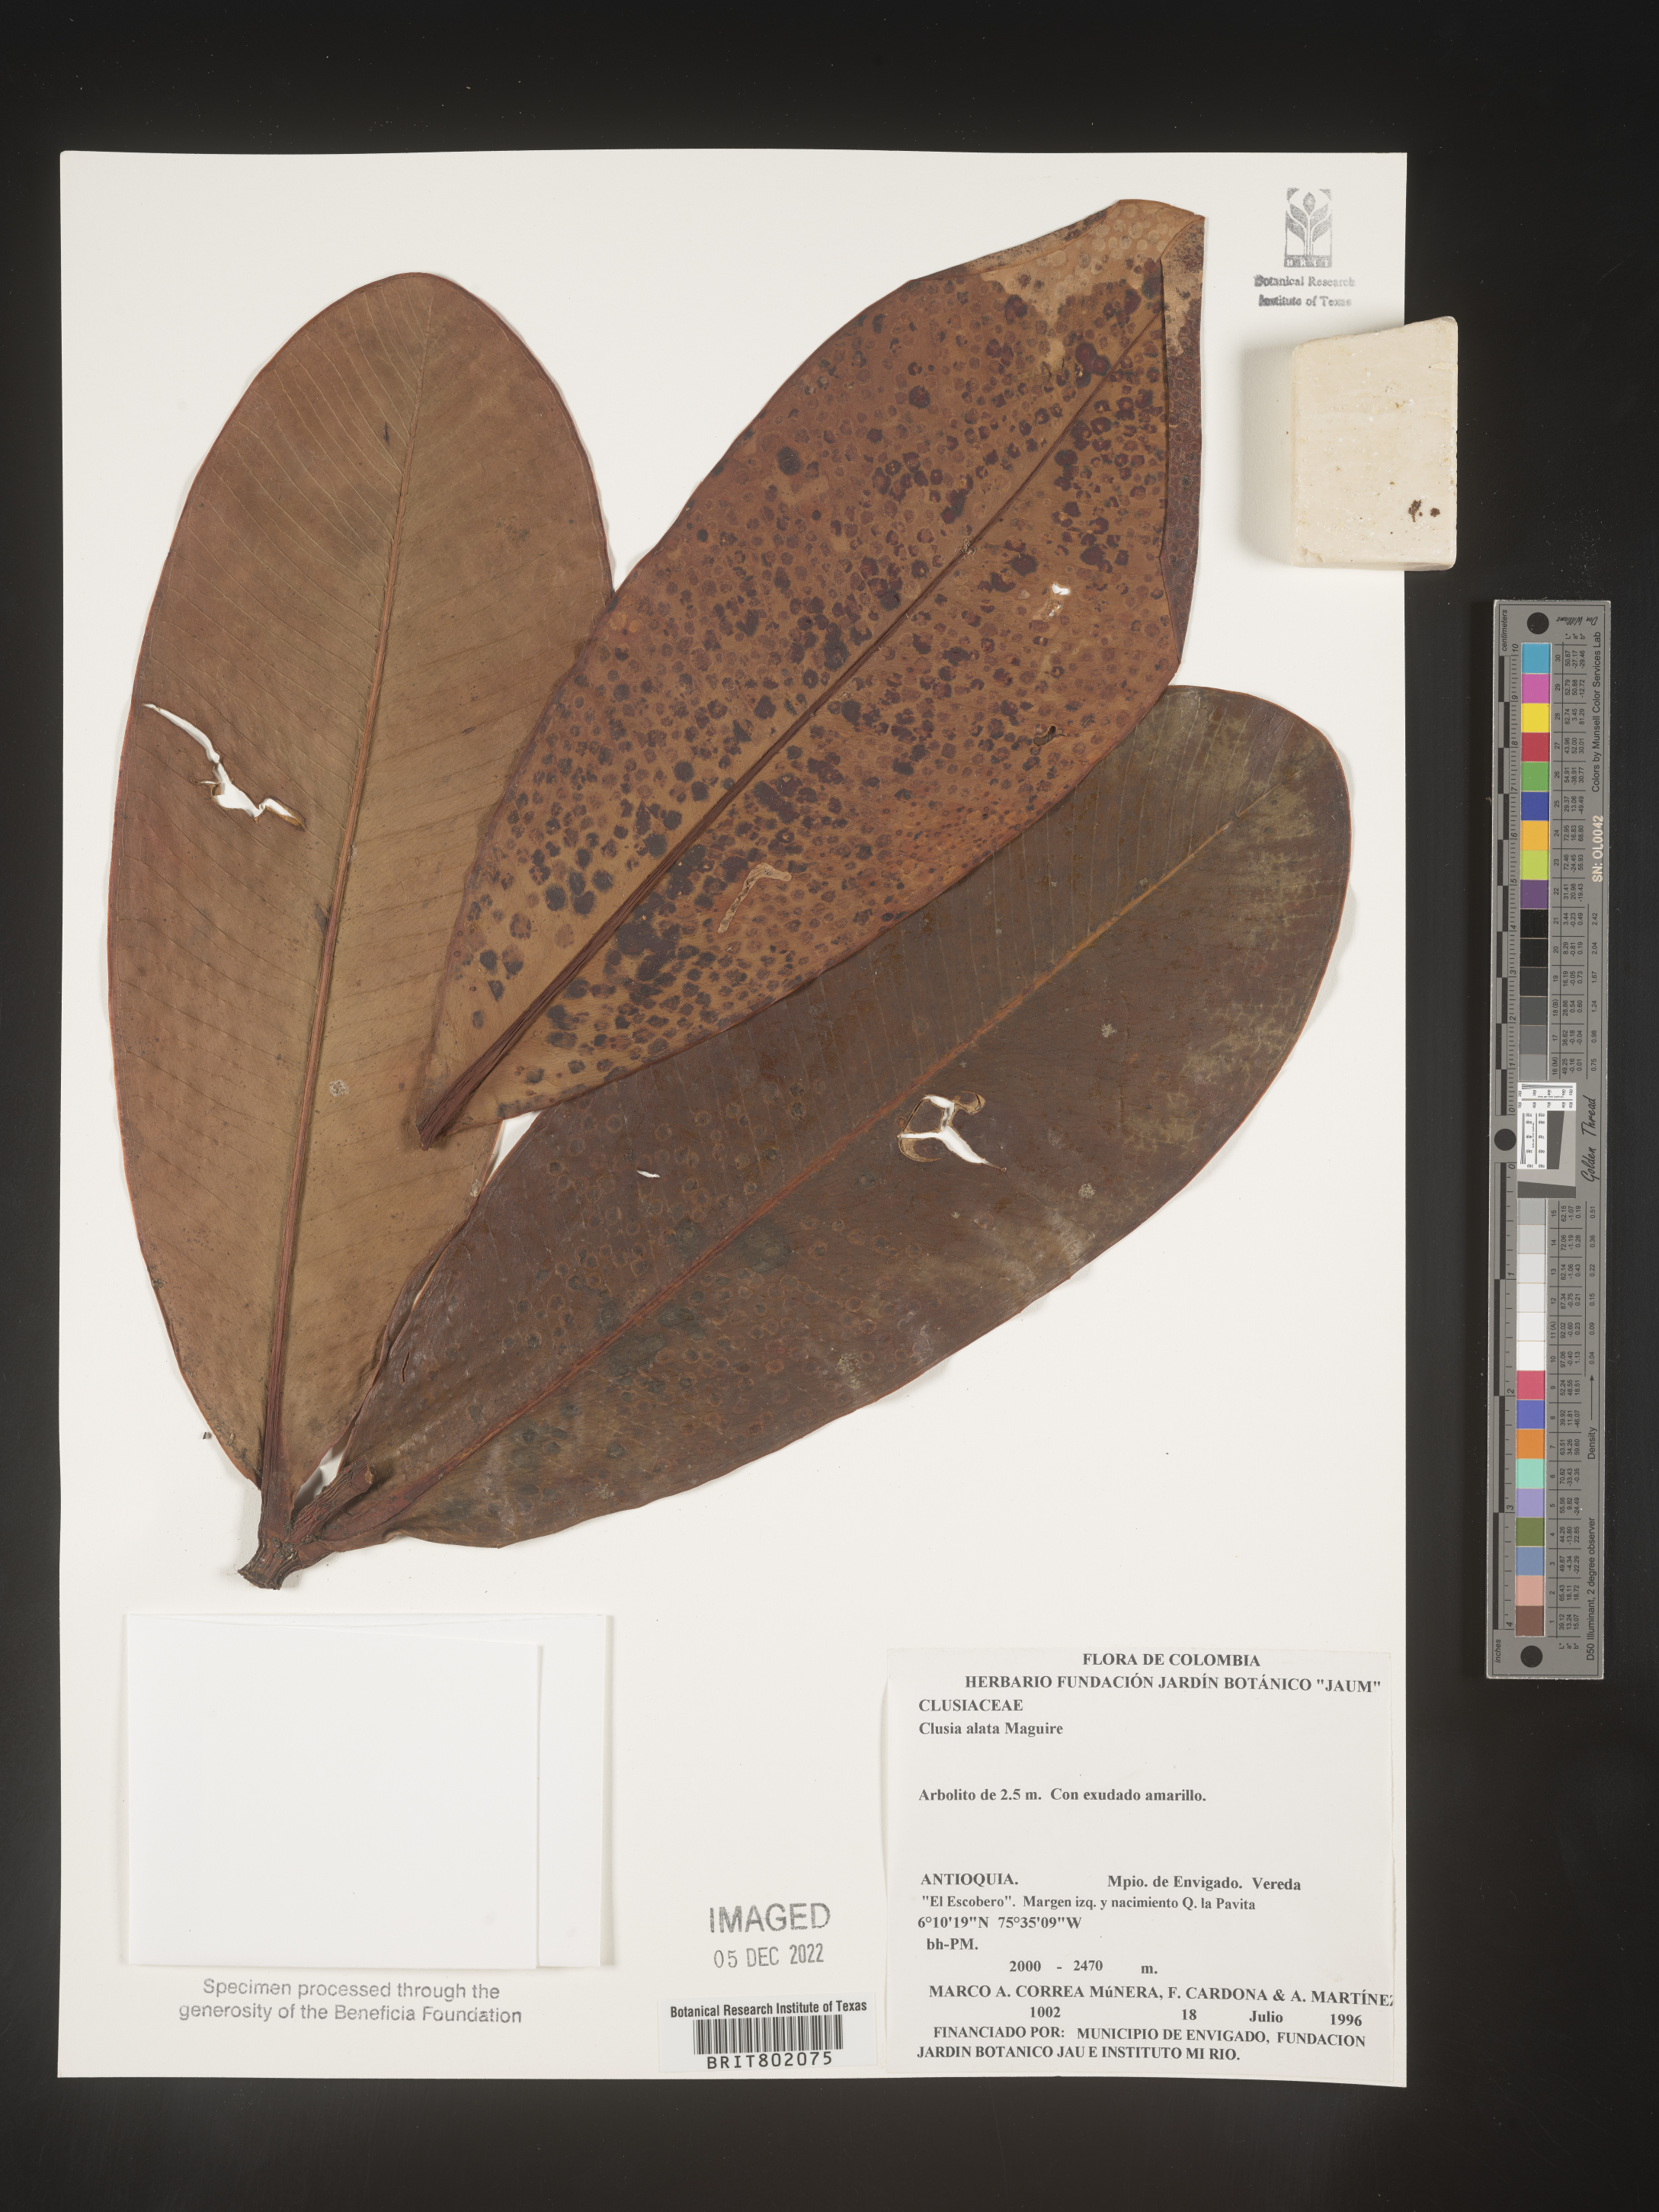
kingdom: Plantae
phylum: Tracheophyta
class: Magnoliopsida
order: Malpighiales
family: Clusiaceae
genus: Clusia
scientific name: Clusia alata
